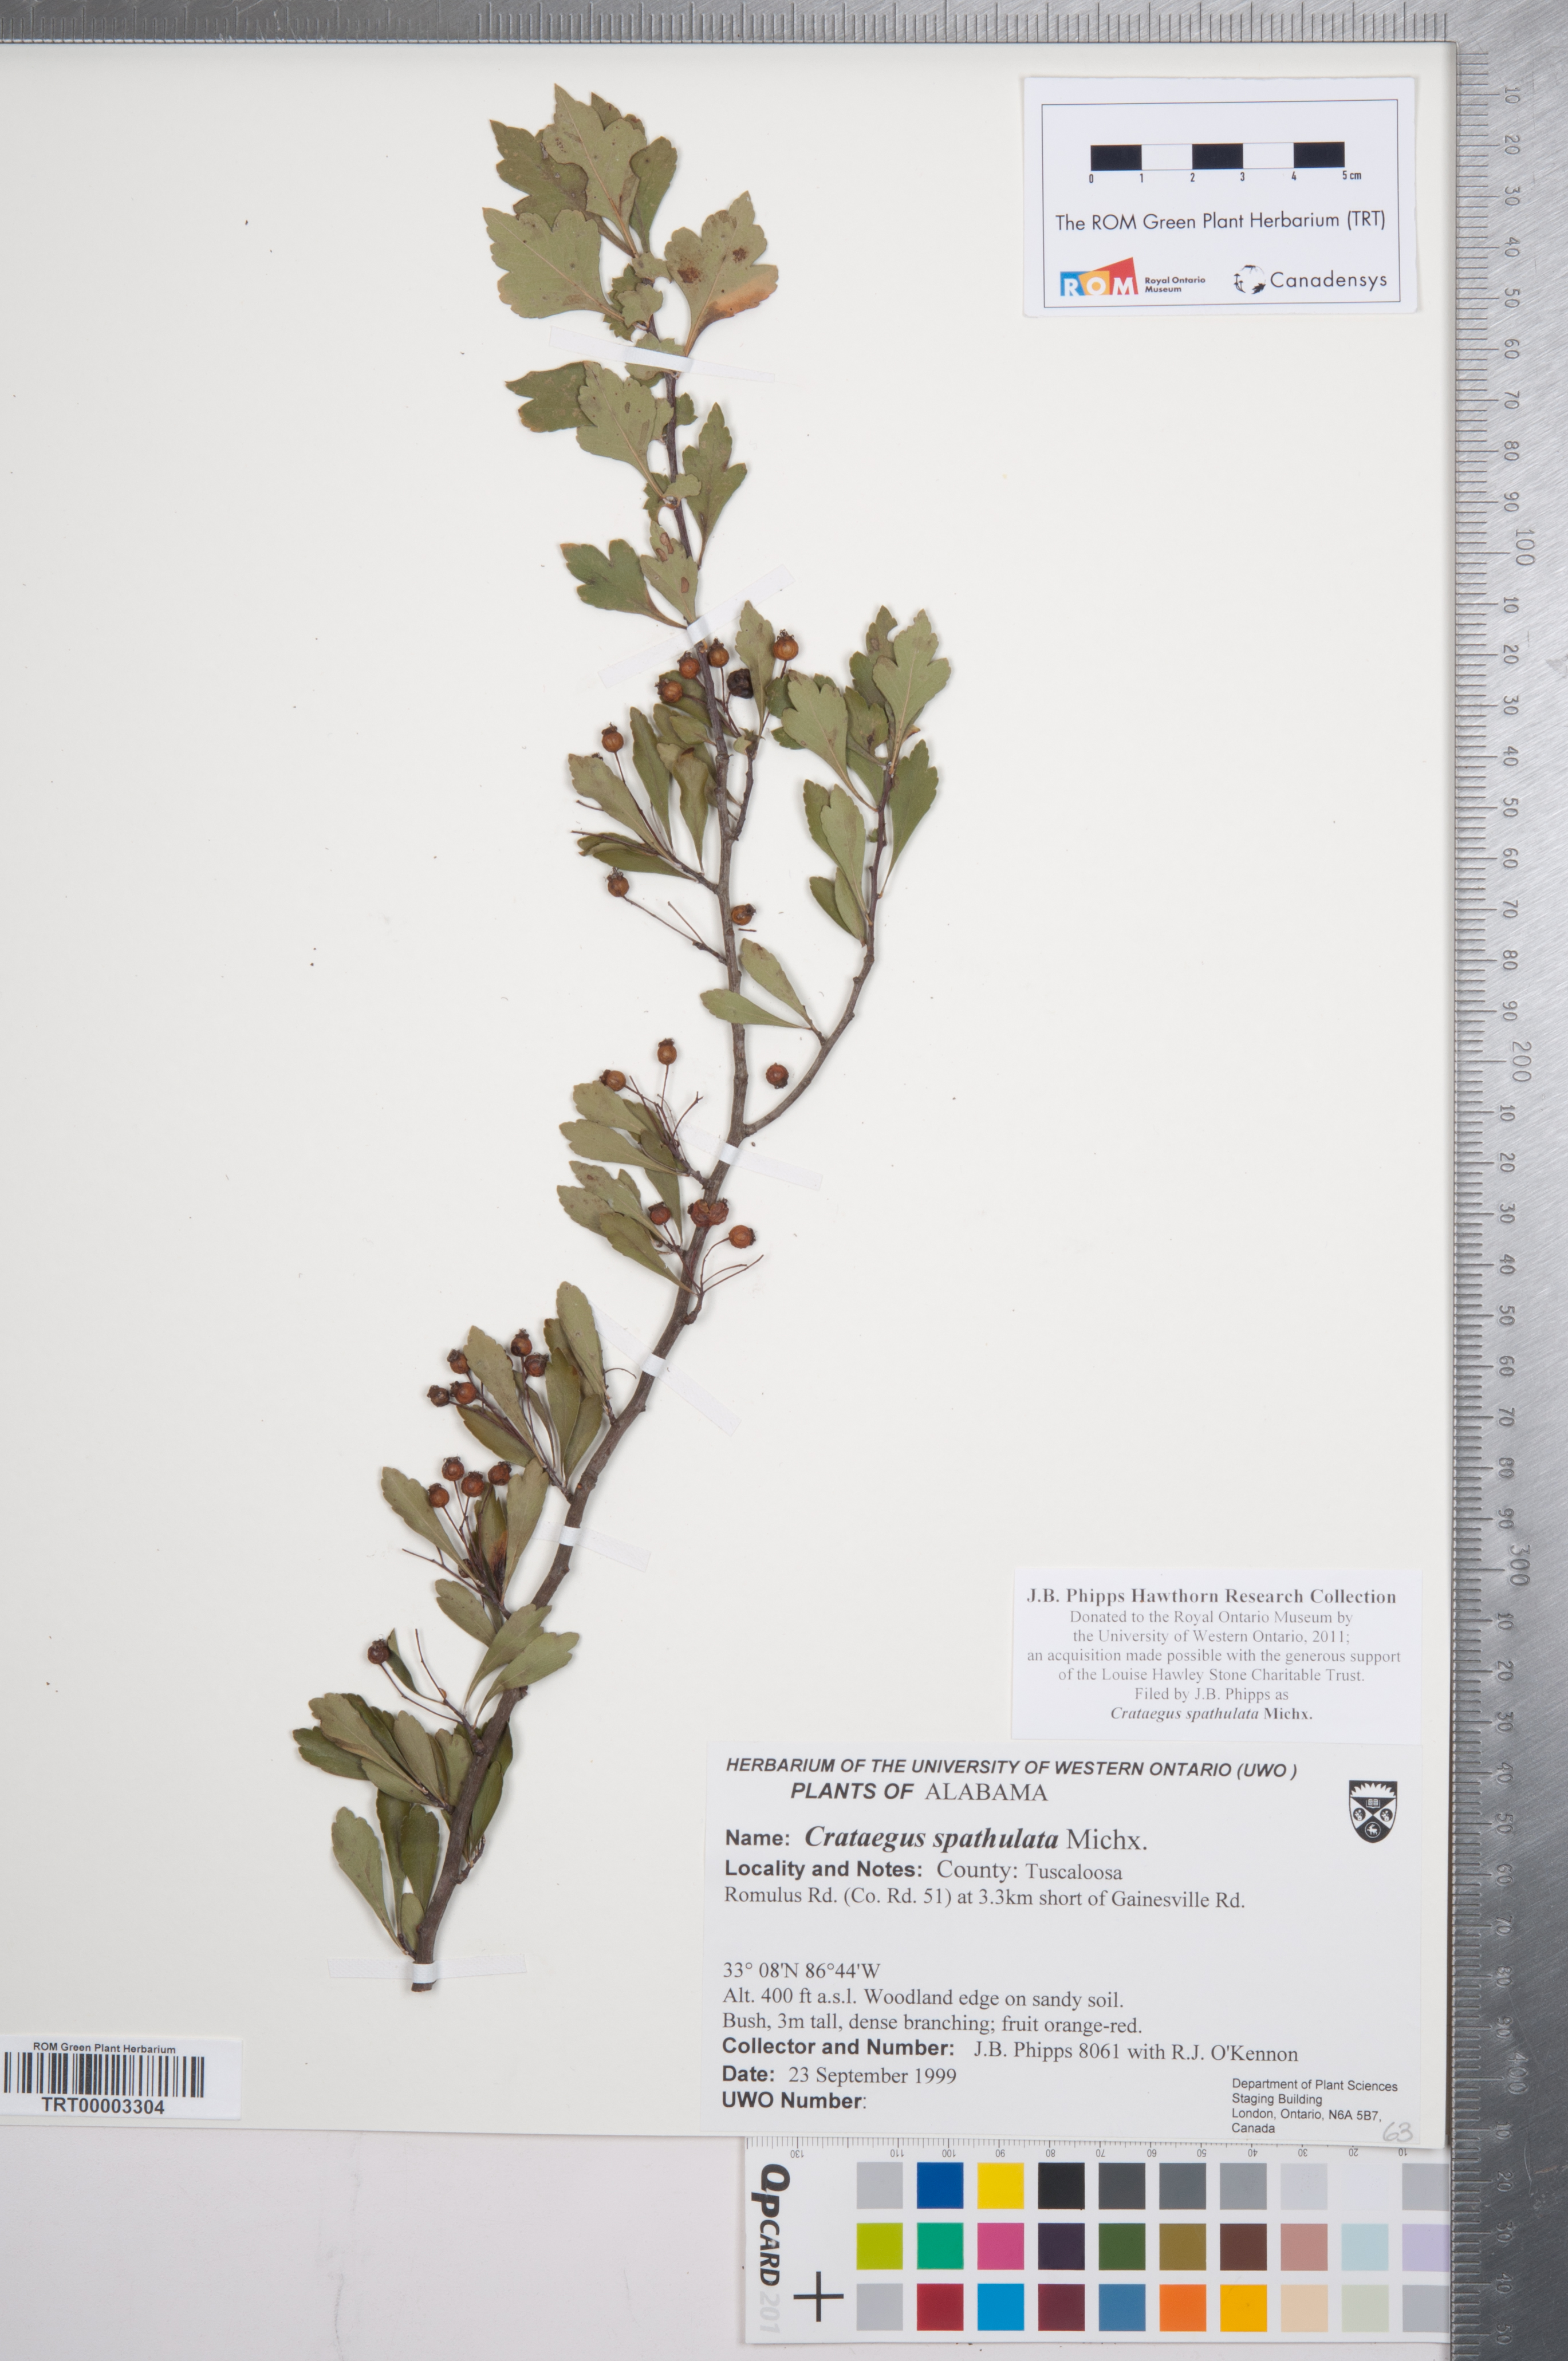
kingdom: Plantae
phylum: Tracheophyta
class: Magnoliopsida
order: Rosales
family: Rosaceae
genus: Crataegus
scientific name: Crataegus spathulata
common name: Littlehip hawthorn
